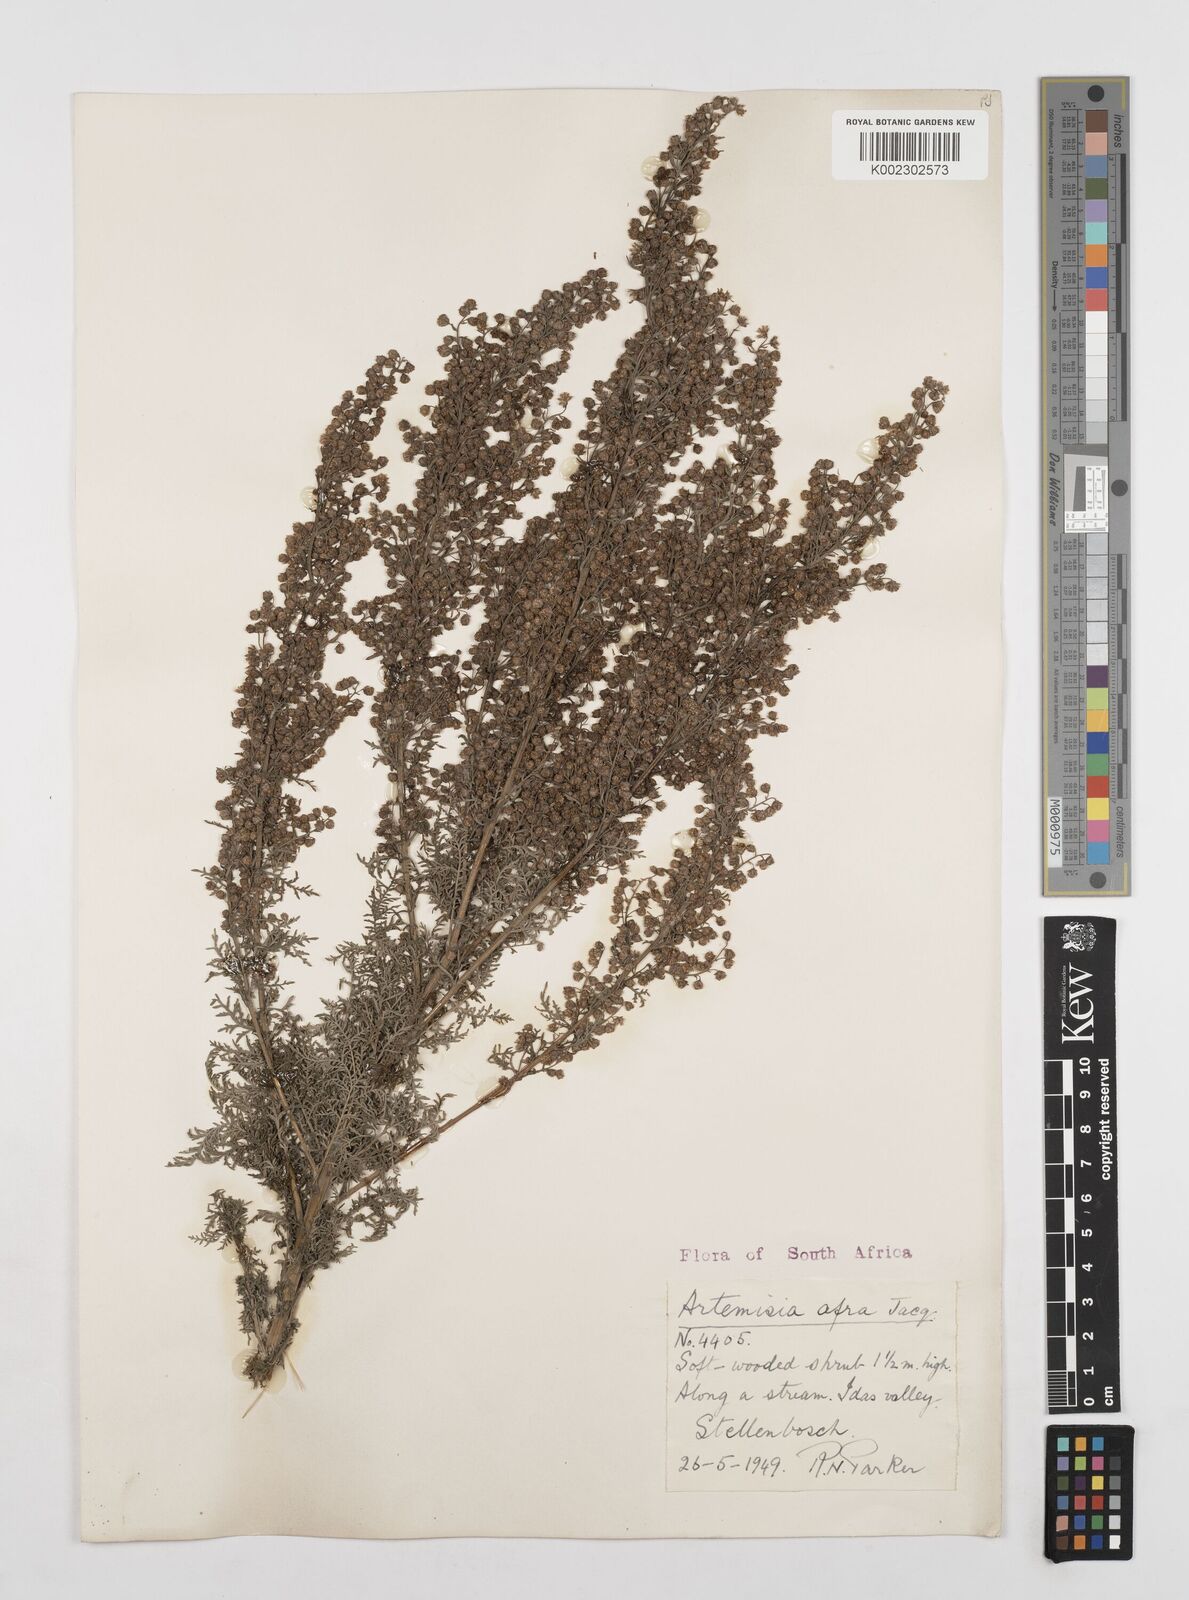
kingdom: Plantae
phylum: Tracheophyta
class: Magnoliopsida
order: Asterales
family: Asteraceae
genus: Artemisia
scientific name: Artemisia afra
